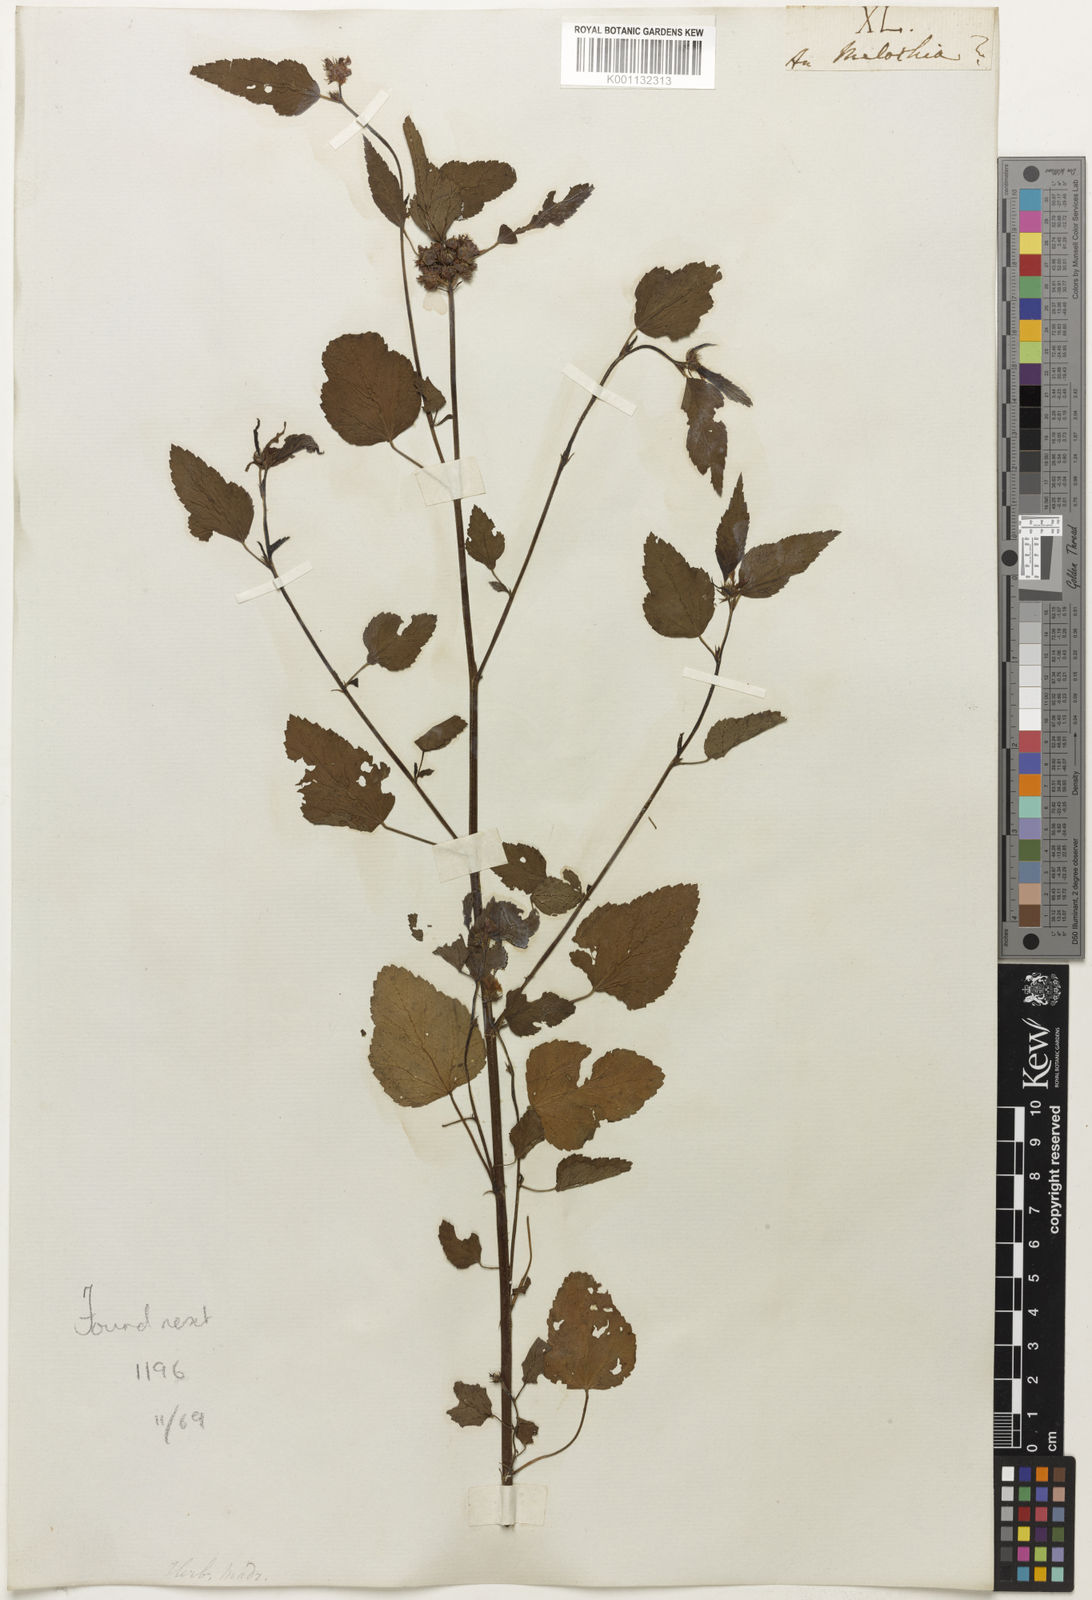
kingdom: Plantae
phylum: Tracheophyta
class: Magnoliopsida
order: Malvales
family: Malvaceae
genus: Melochia
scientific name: Melochia
